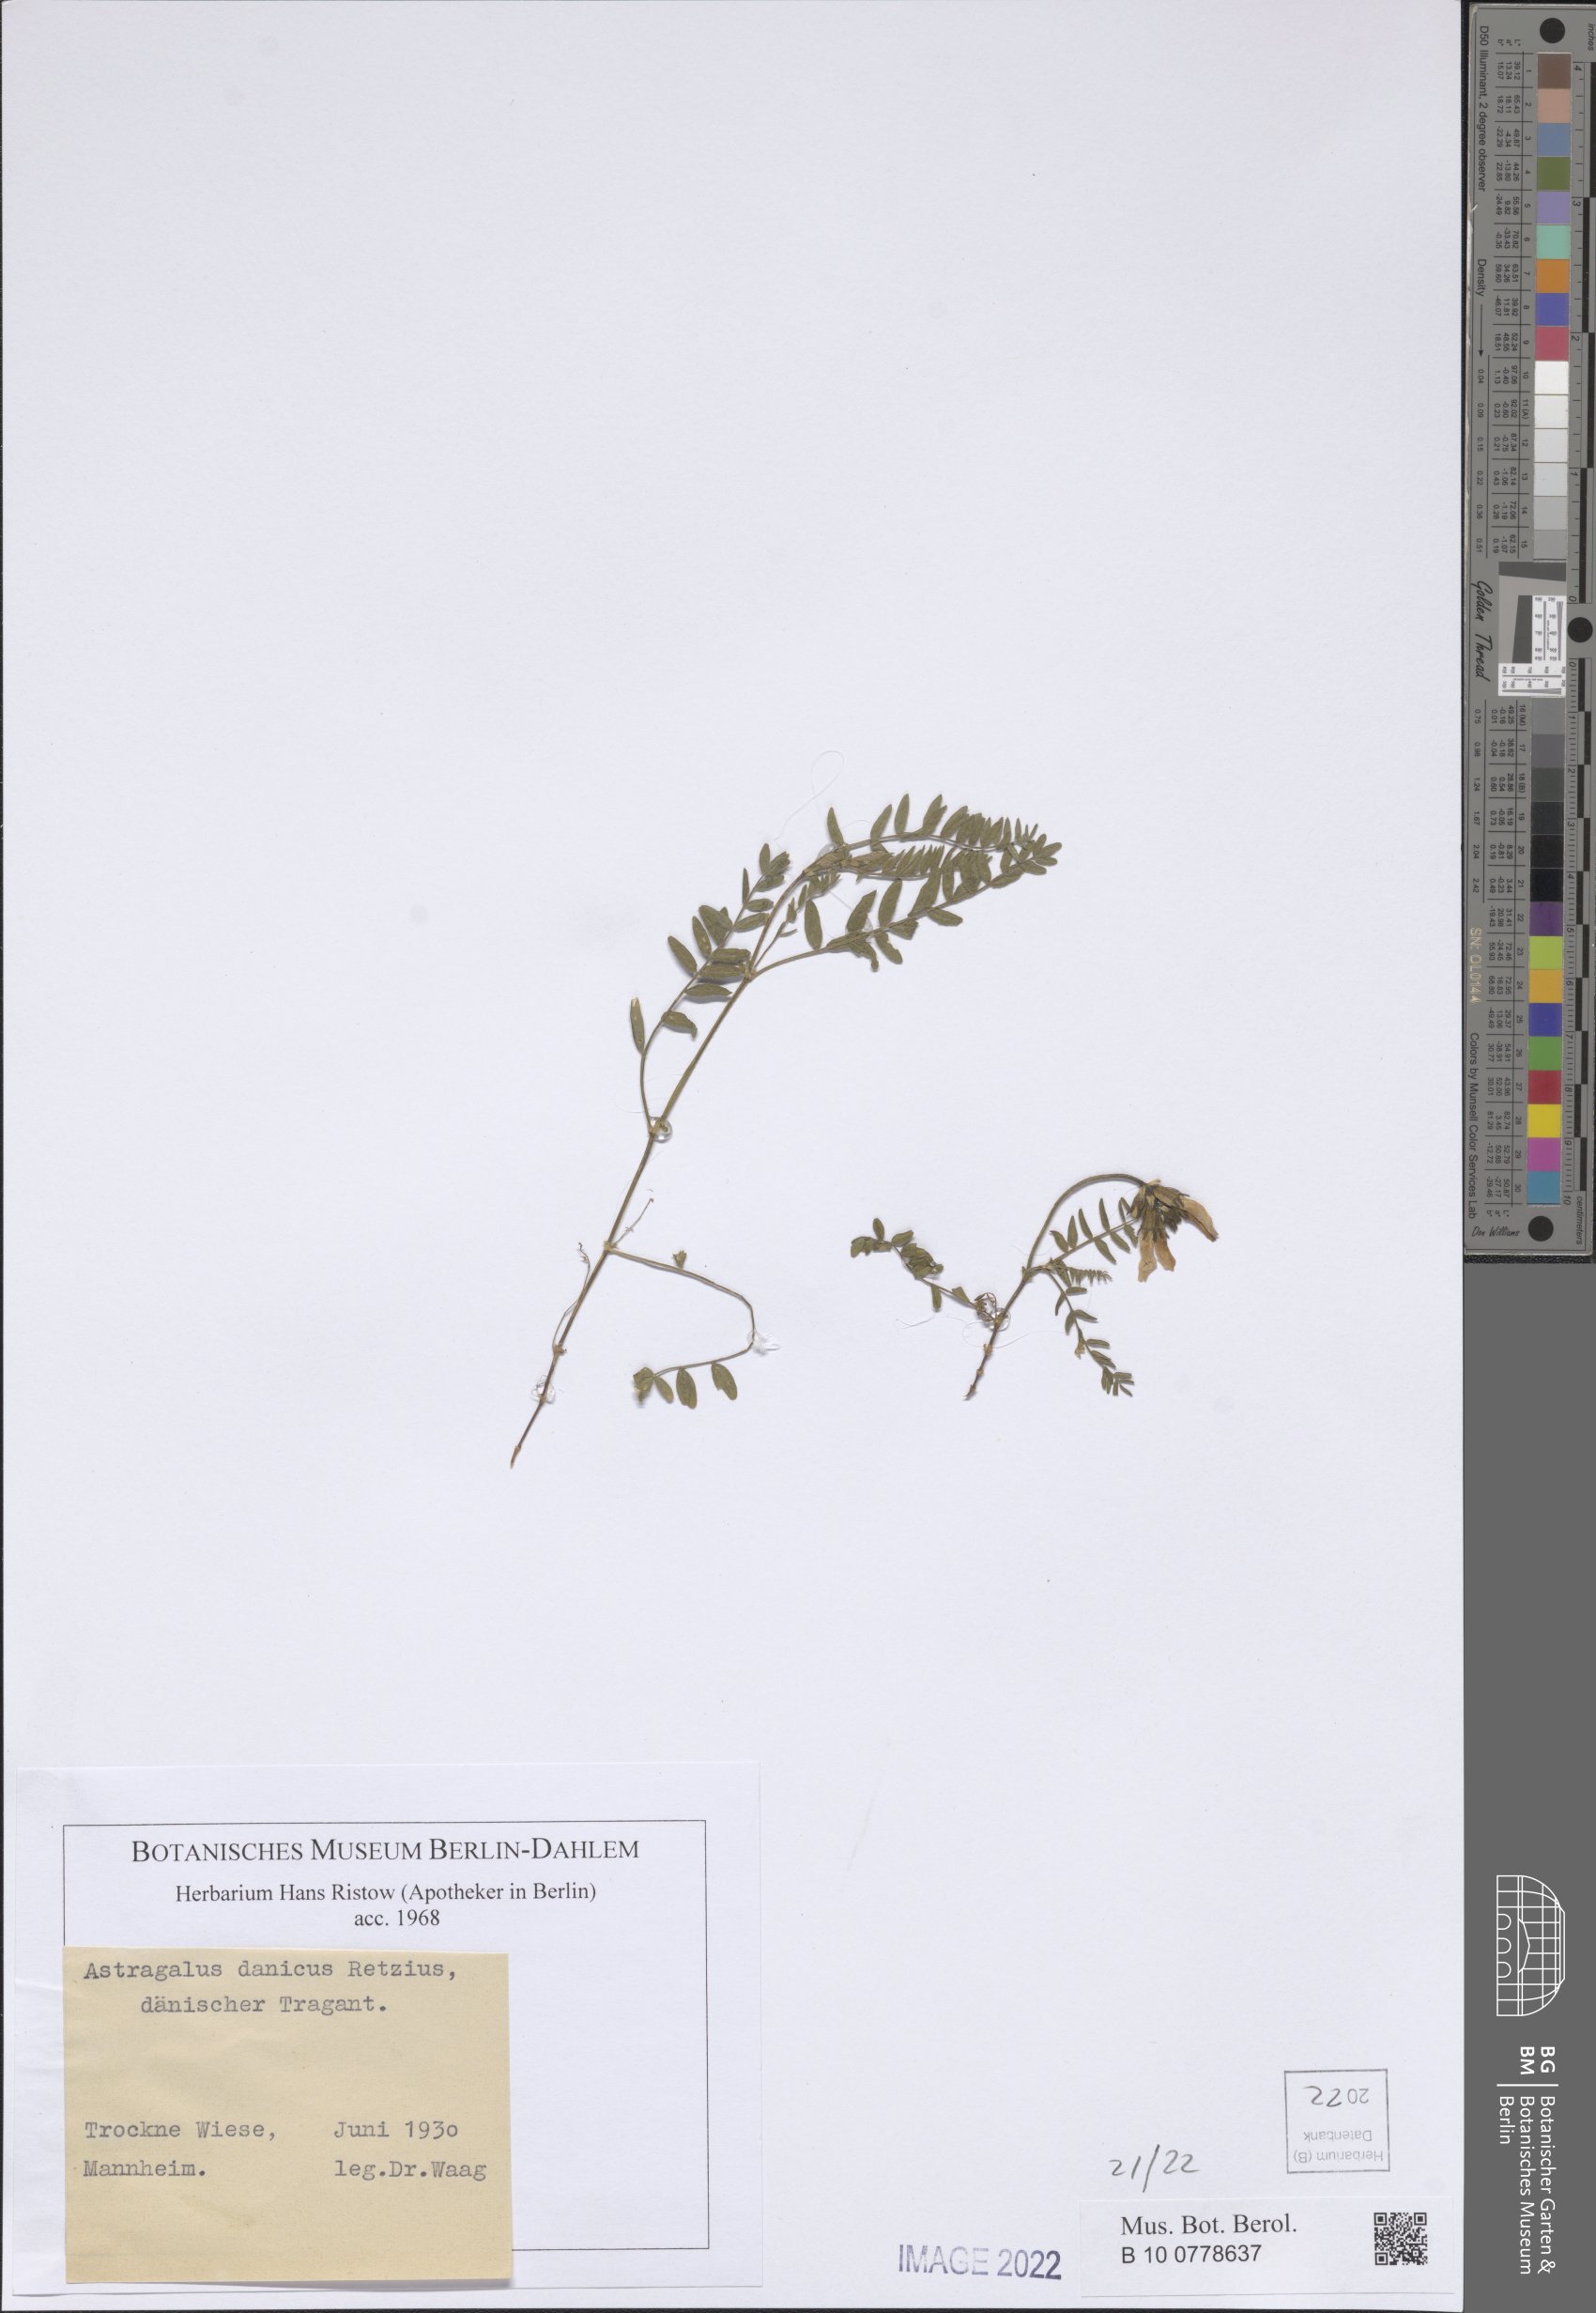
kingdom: Plantae
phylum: Tracheophyta
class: Magnoliopsida
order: Fabales
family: Fabaceae
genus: Astragalus
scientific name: Astragalus danicus
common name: Purple milk-vetch
